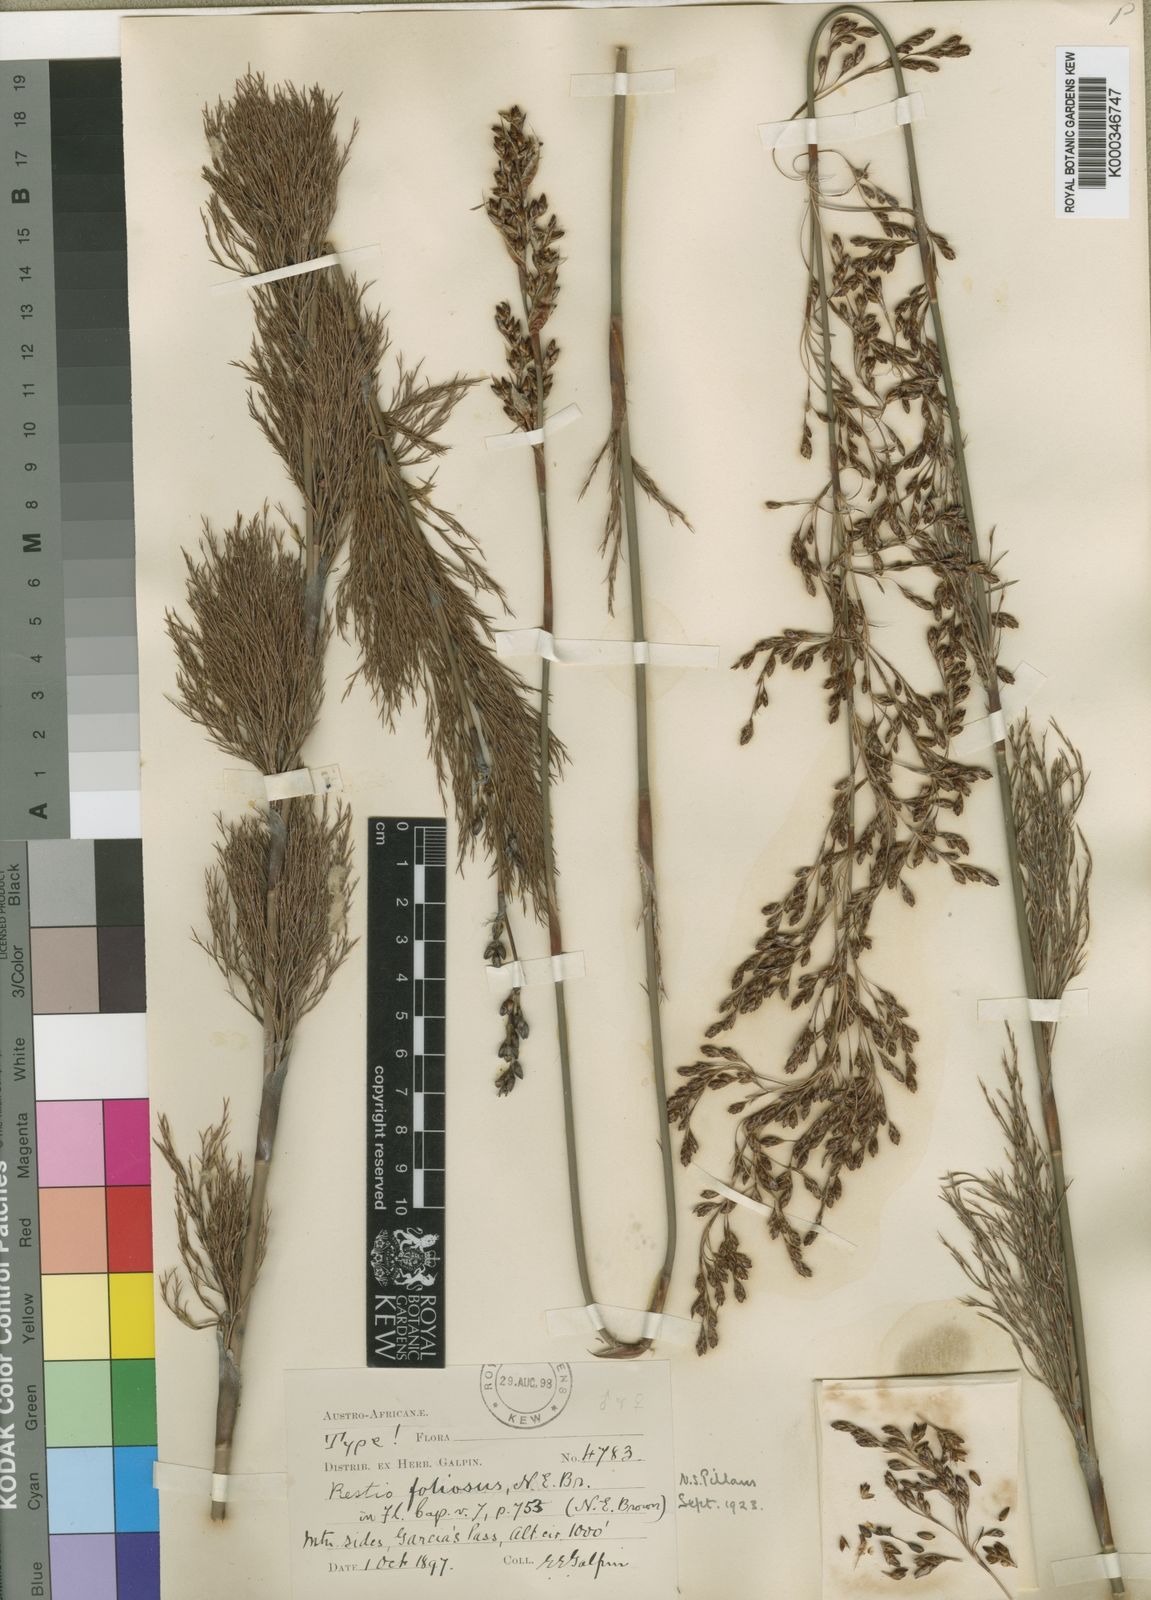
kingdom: Plantae
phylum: Tracheophyta
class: Liliopsida
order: Poales
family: Restionaceae
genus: Rhodocoma
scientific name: Rhodocoma gigantea
